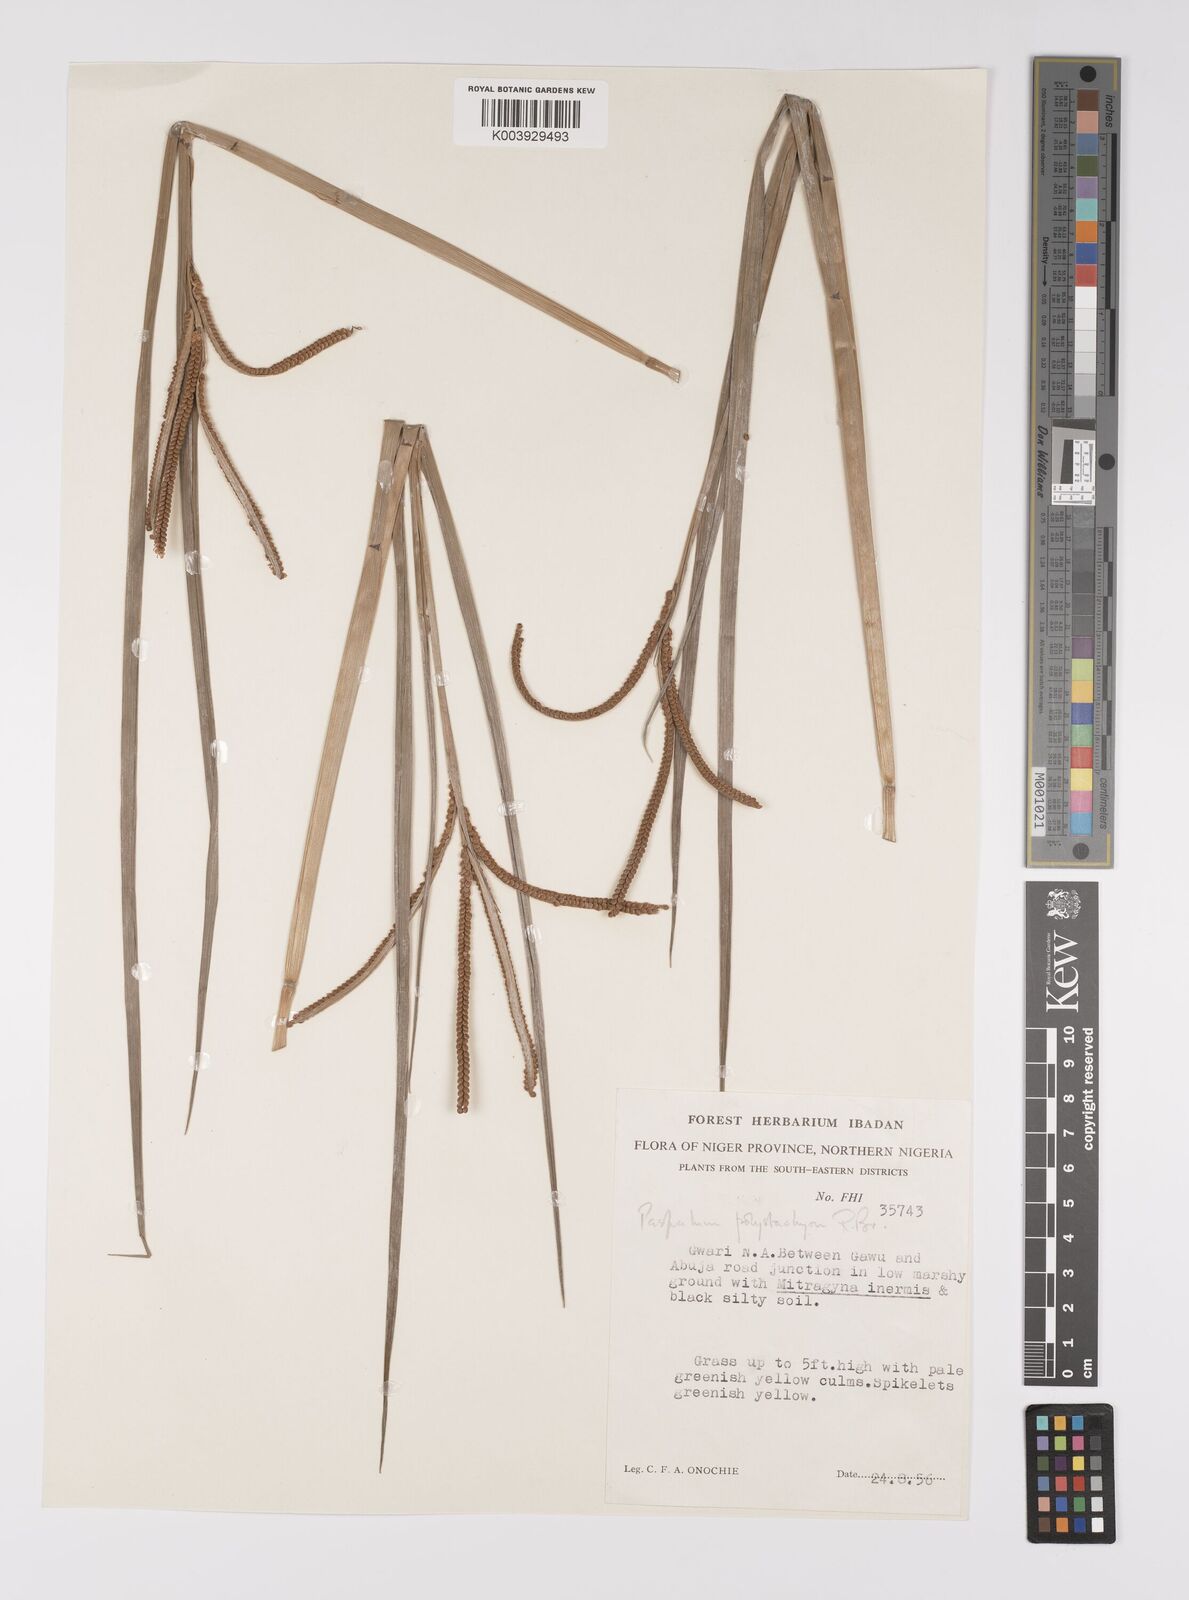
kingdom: Plantae
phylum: Tracheophyta
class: Liliopsida
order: Poales
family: Poaceae
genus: Paspalum
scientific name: Paspalum scrobiculatum
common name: Kodo millet
